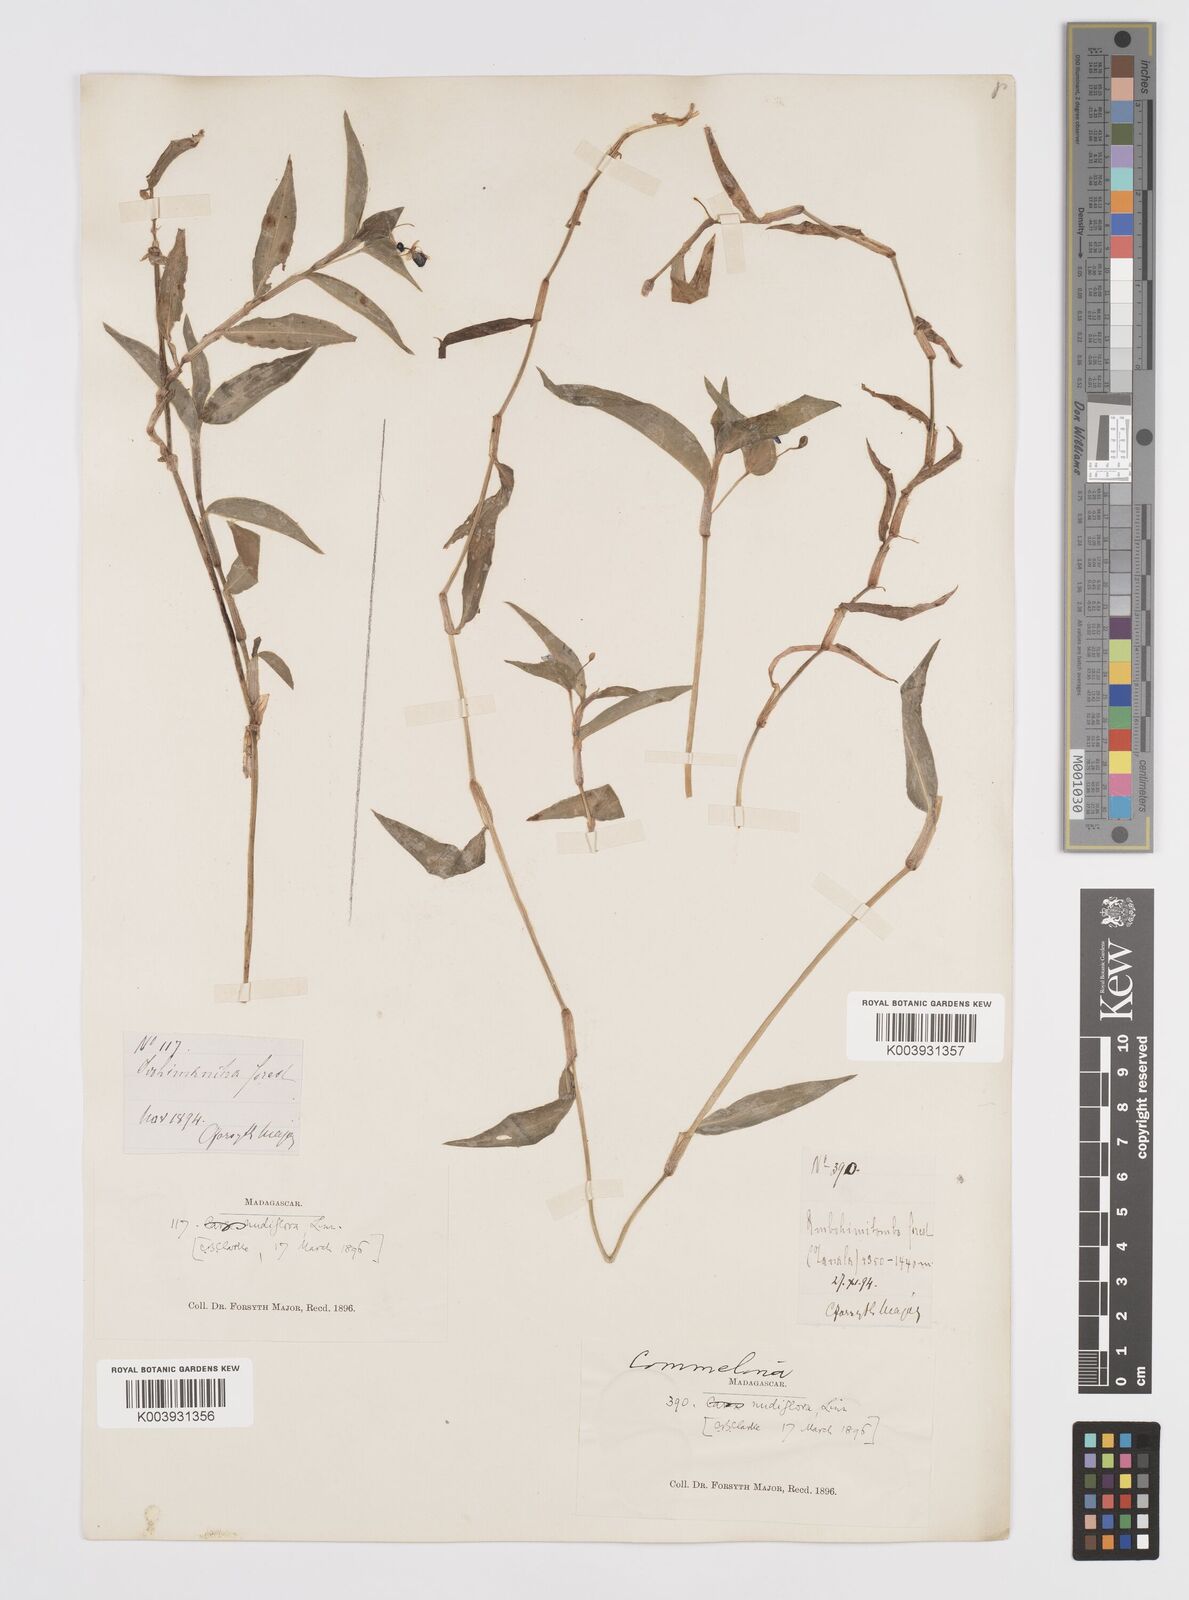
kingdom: Plantae
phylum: Tracheophyta
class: Liliopsida
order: Commelinales
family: Commelinaceae
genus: Murdannia
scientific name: Murdannia nudiflora
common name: Nakedstem dewflower
